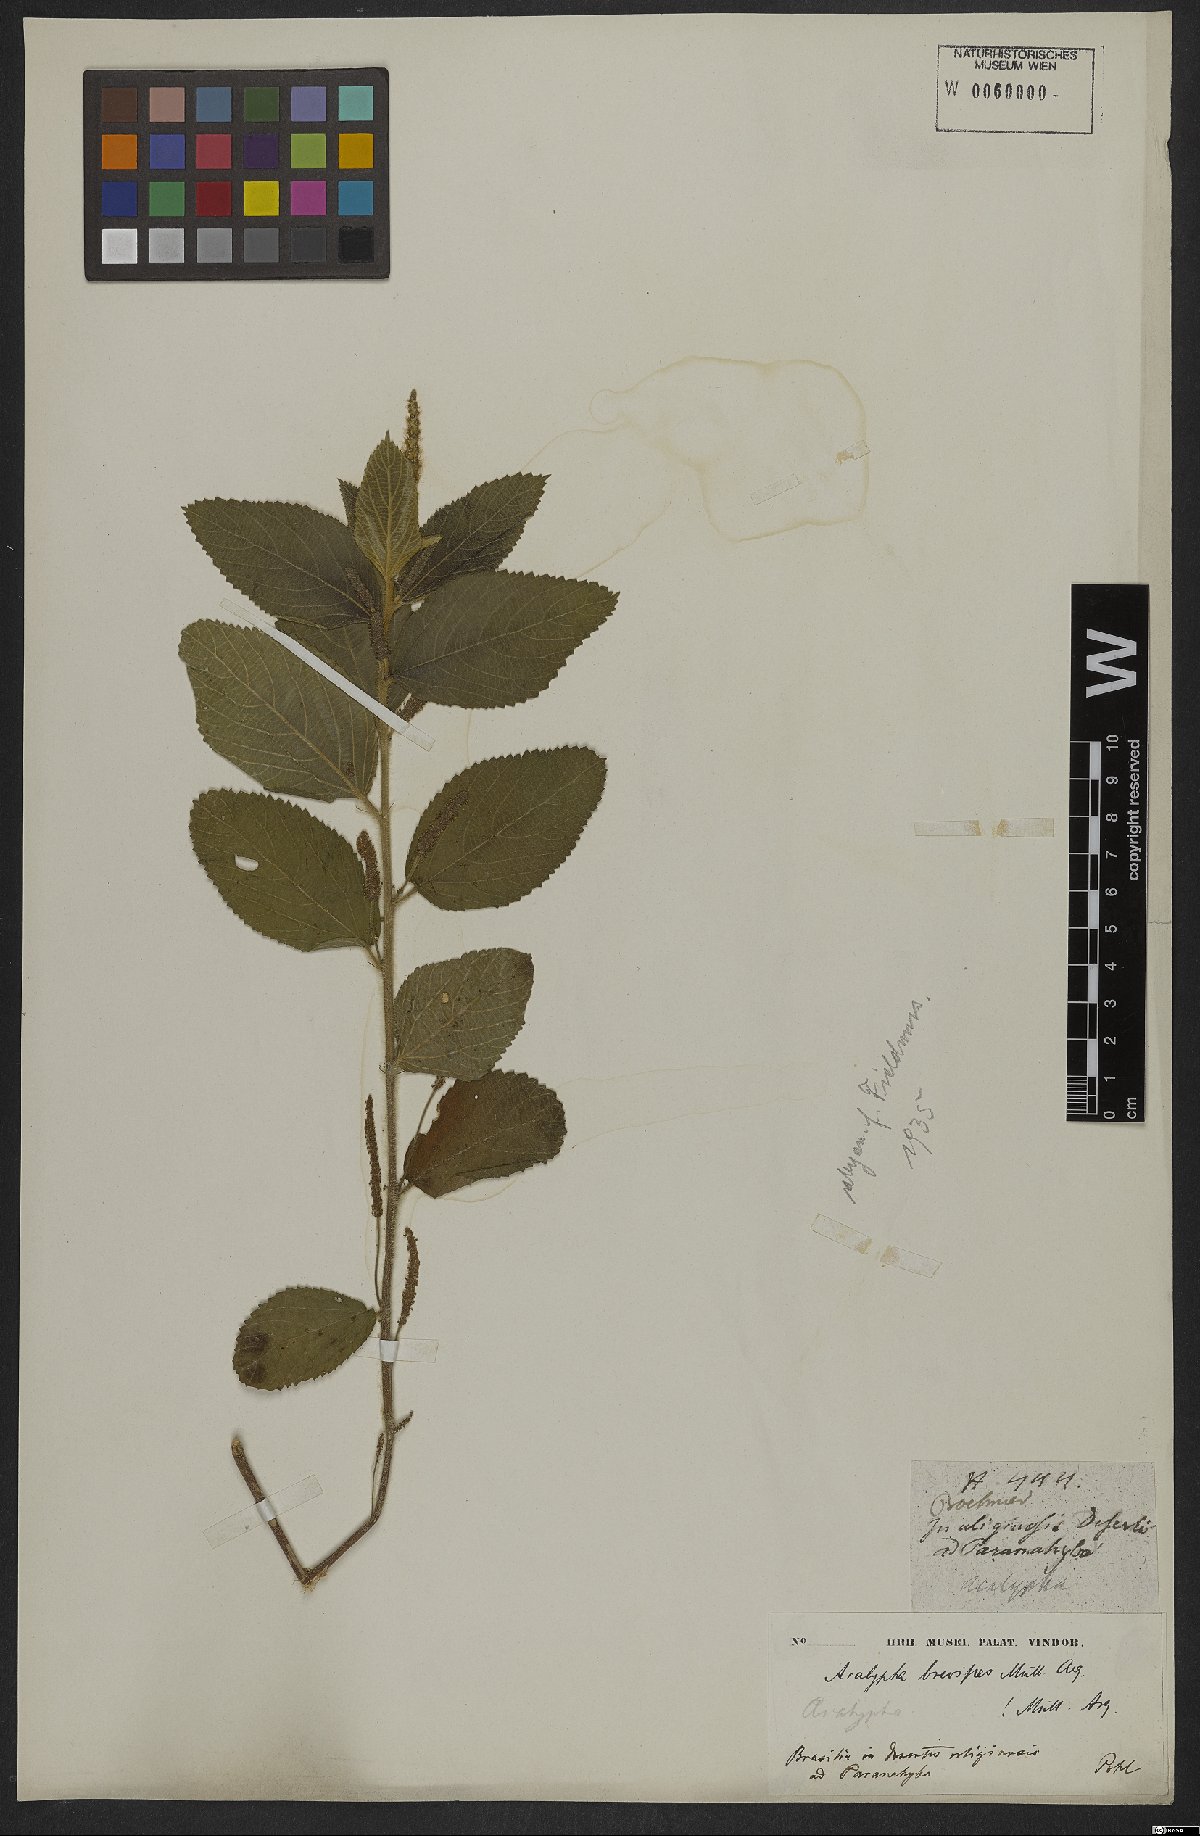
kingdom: Plantae
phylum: Tracheophyta
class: Magnoliopsida
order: Malpighiales
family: Euphorbiaceae
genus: Acalypha
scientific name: Acalypha vellamea
